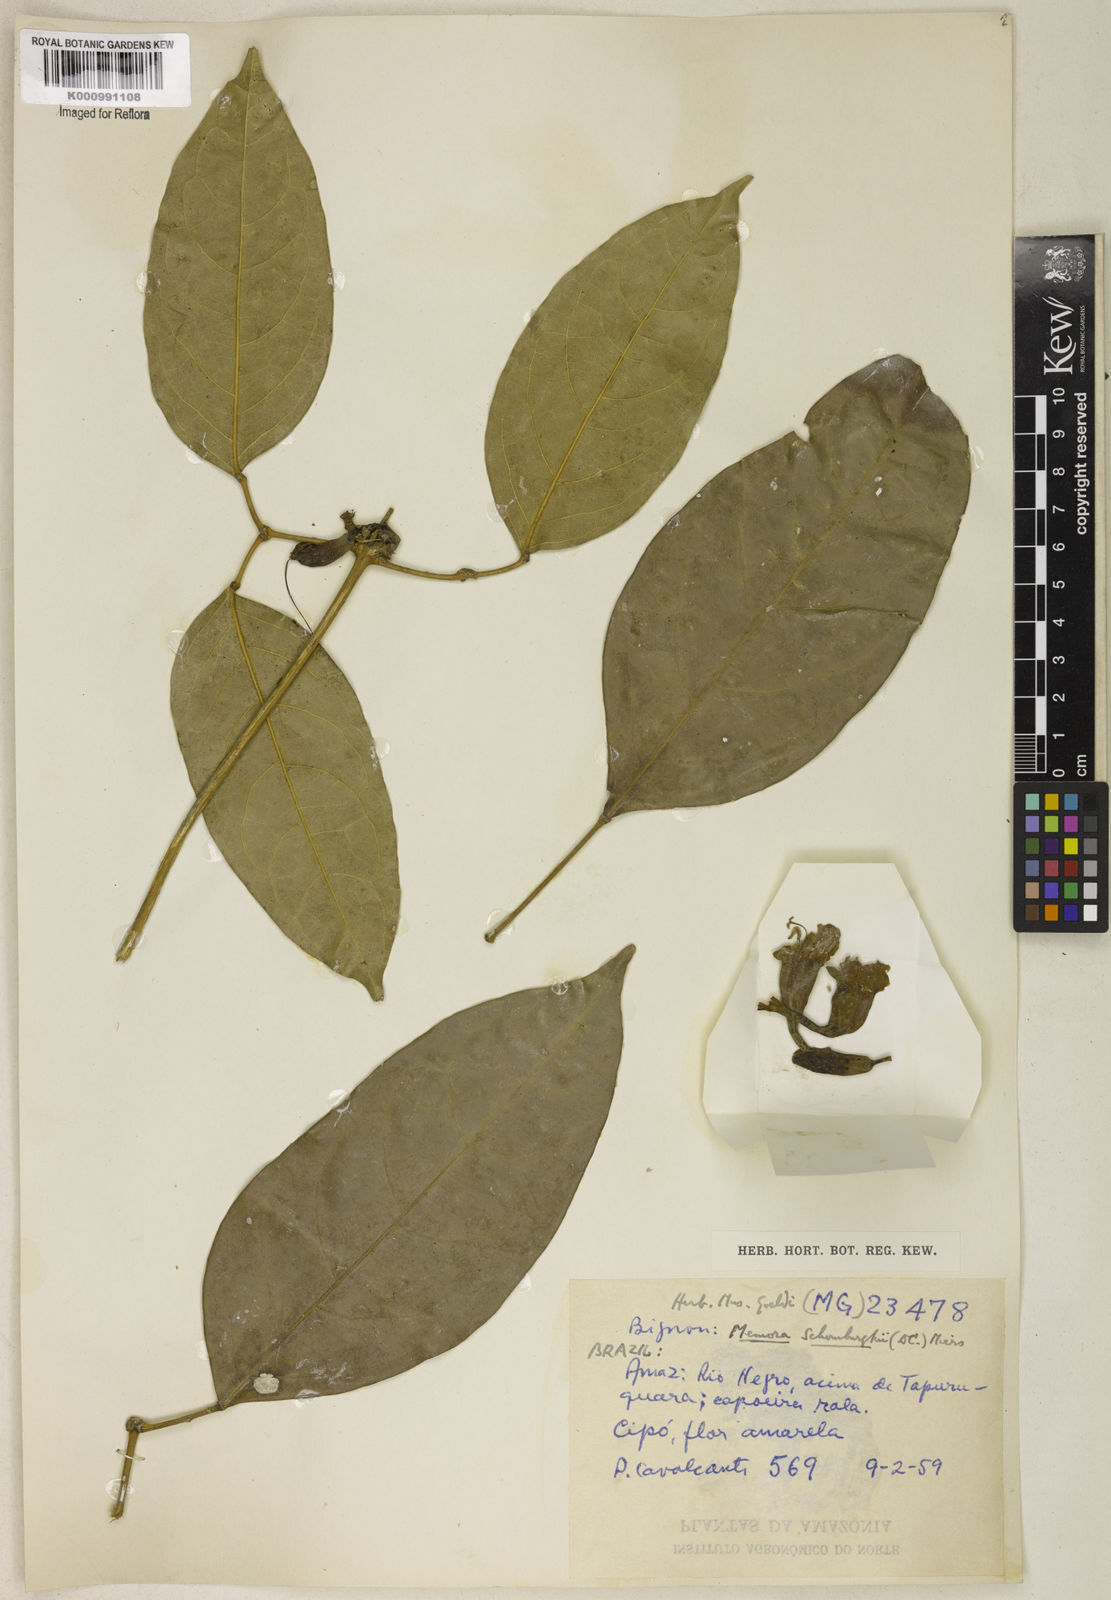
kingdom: Plantae
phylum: Tracheophyta
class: Magnoliopsida
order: Lamiales
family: Bignoniaceae
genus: Adenocalymma
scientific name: Adenocalymma schomburgkii
